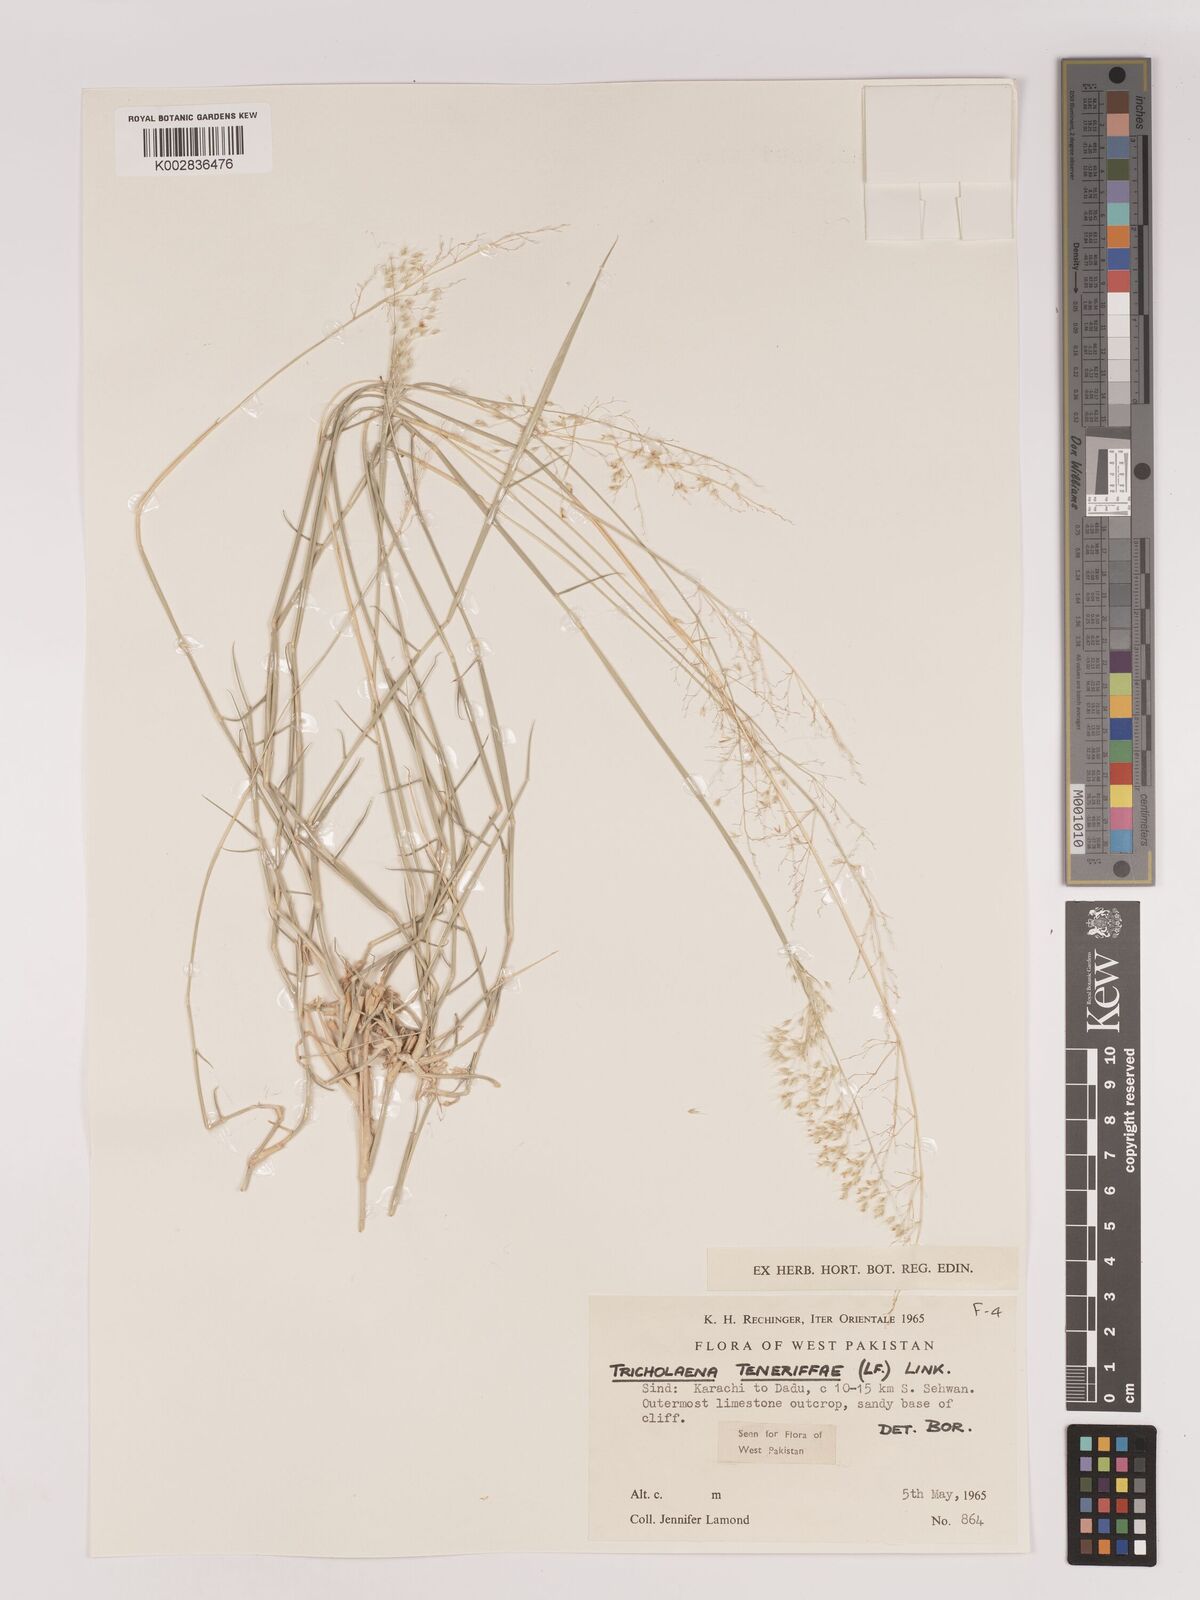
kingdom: Plantae
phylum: Tracheophyta
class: Liliopsida
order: Poales
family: Poaceae
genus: Tricholaena
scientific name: Tricholaena teneriffae
